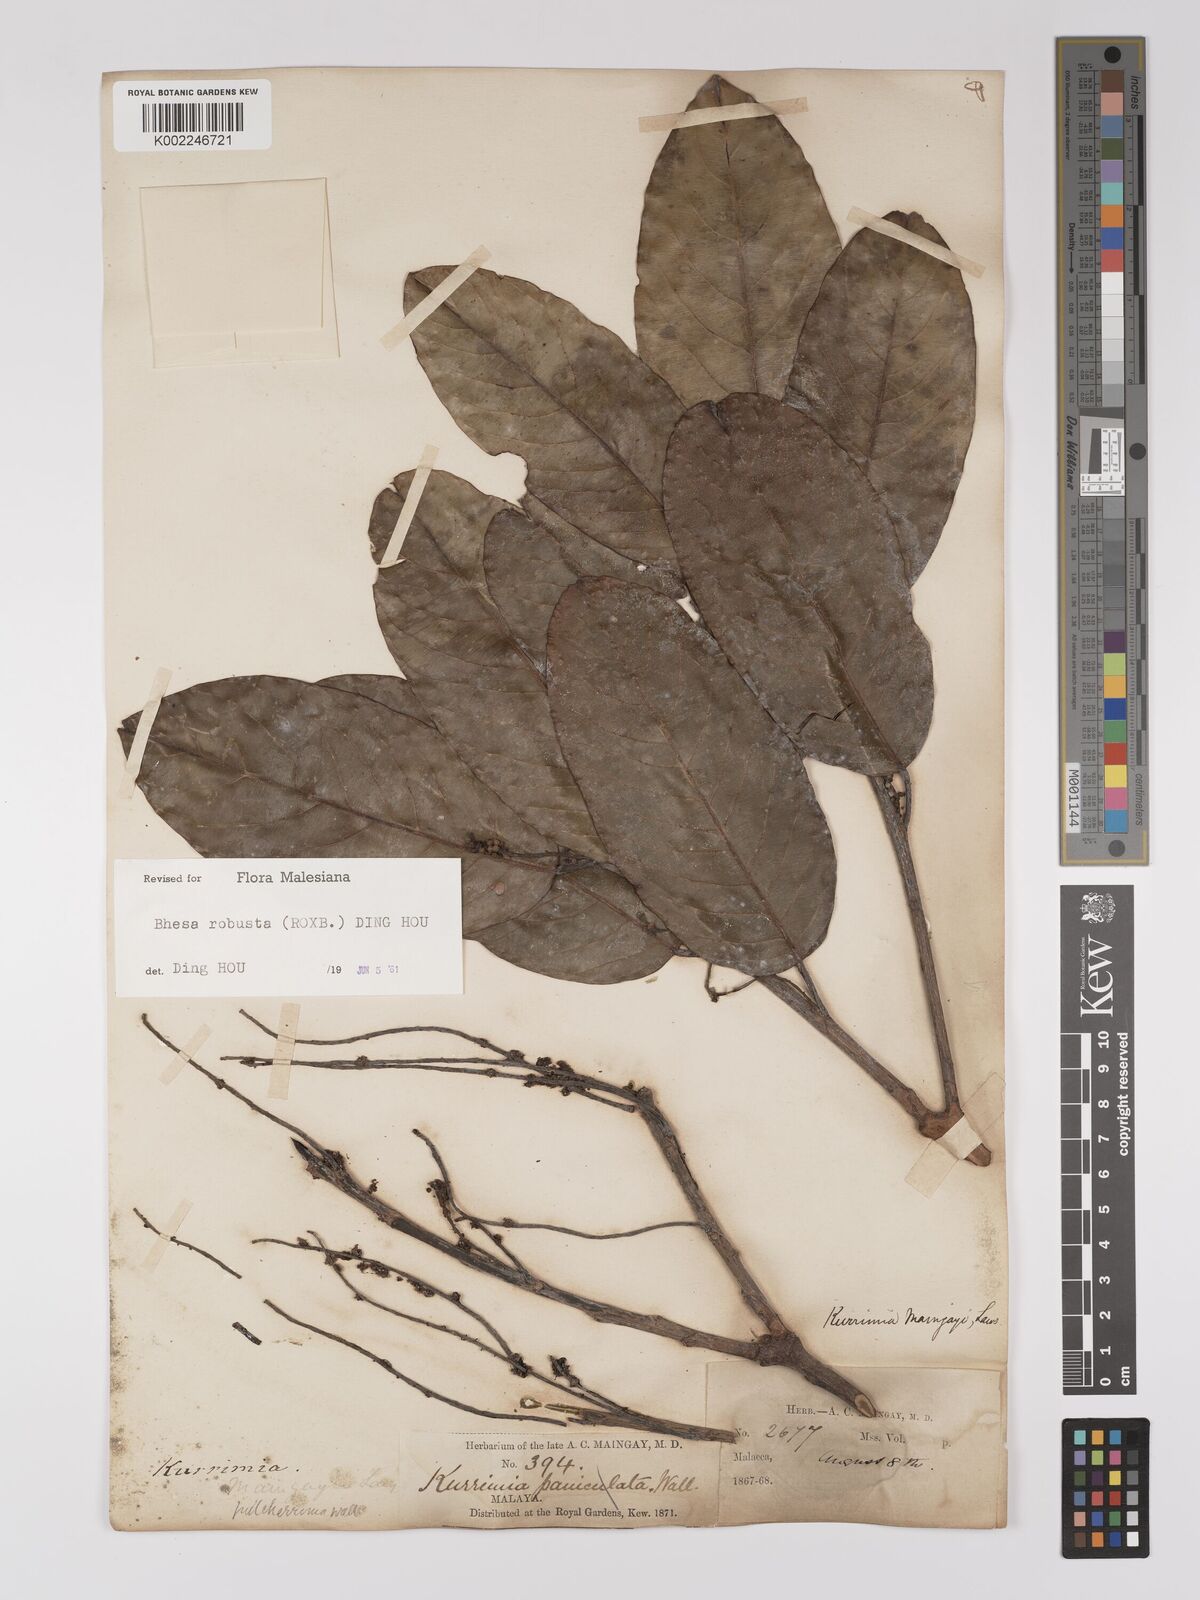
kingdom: Plantae
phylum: Tracheophyta
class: Magnoliopsida
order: Malpighiales
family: Centroplacaceae
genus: Bhesa
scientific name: Bhesa robusta
